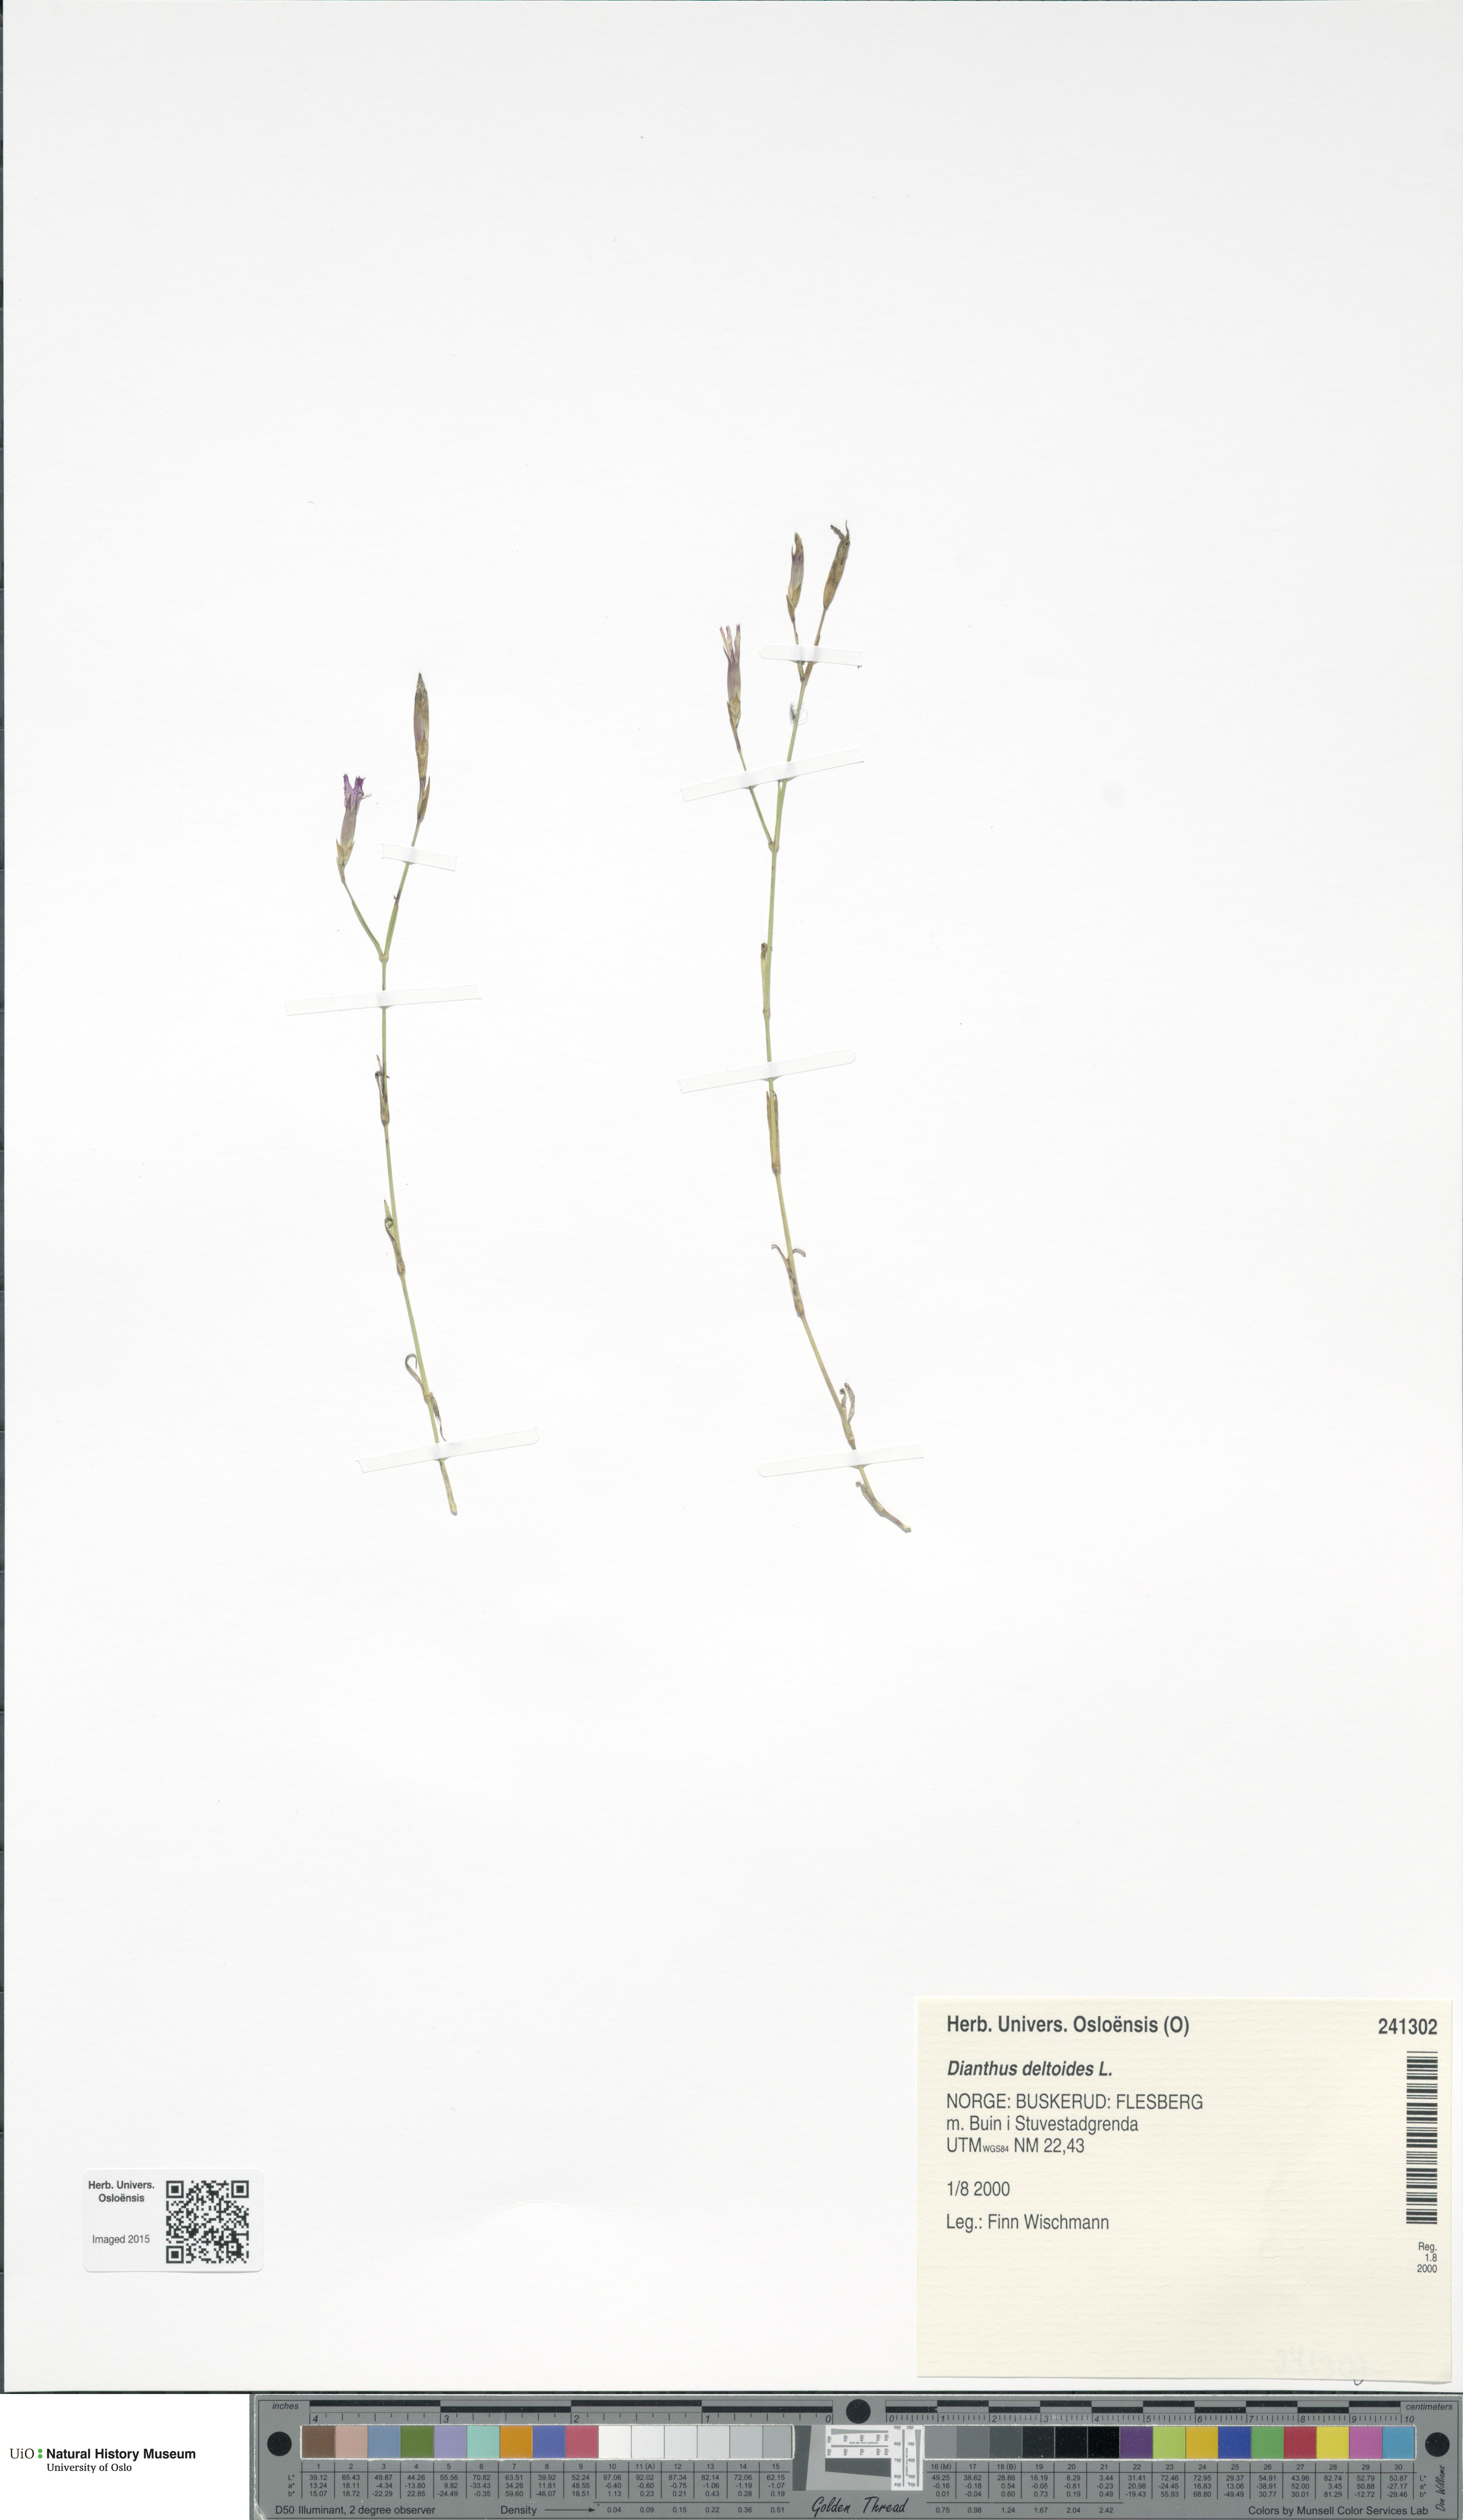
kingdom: Plantae
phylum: Tracheophyta
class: Magnoliopsida
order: Caryophyllales
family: Caryophyllaceae
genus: Dianthus
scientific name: Dianthus deltoides
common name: Maiden pink
